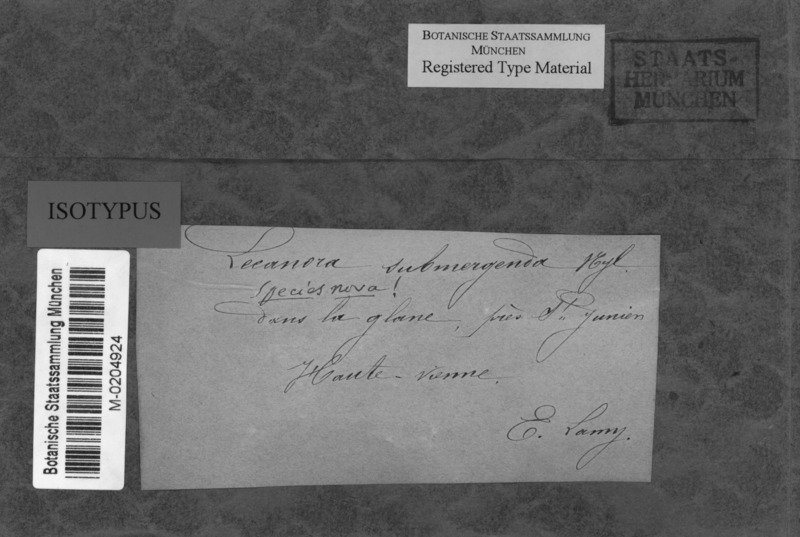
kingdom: Fungi
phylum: Ascomycota
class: Lecanoromycetes
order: Teloschistales
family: Teloschistaceae
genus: Caloplaca
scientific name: Caloplaca submergenda
